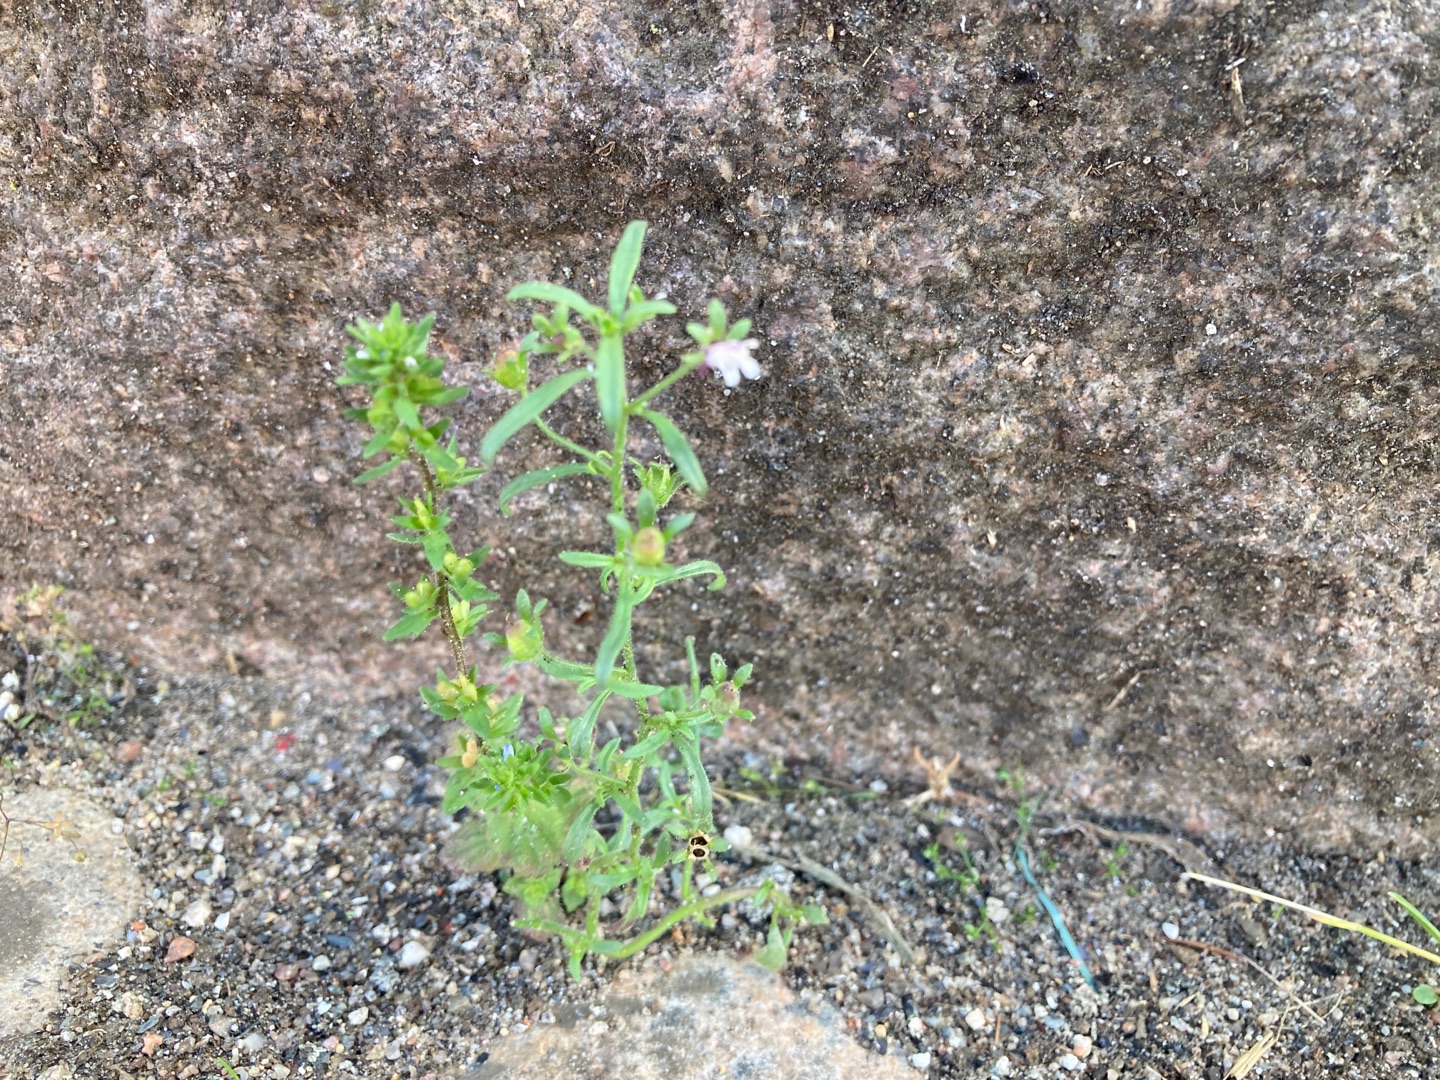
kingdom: Plantae
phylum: Tracheophyta
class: Magnoliopsida
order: Lamiales
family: Plantaginaceae
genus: Chaenorhinum
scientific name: Chaenorhinum minus
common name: Liden torskemund
